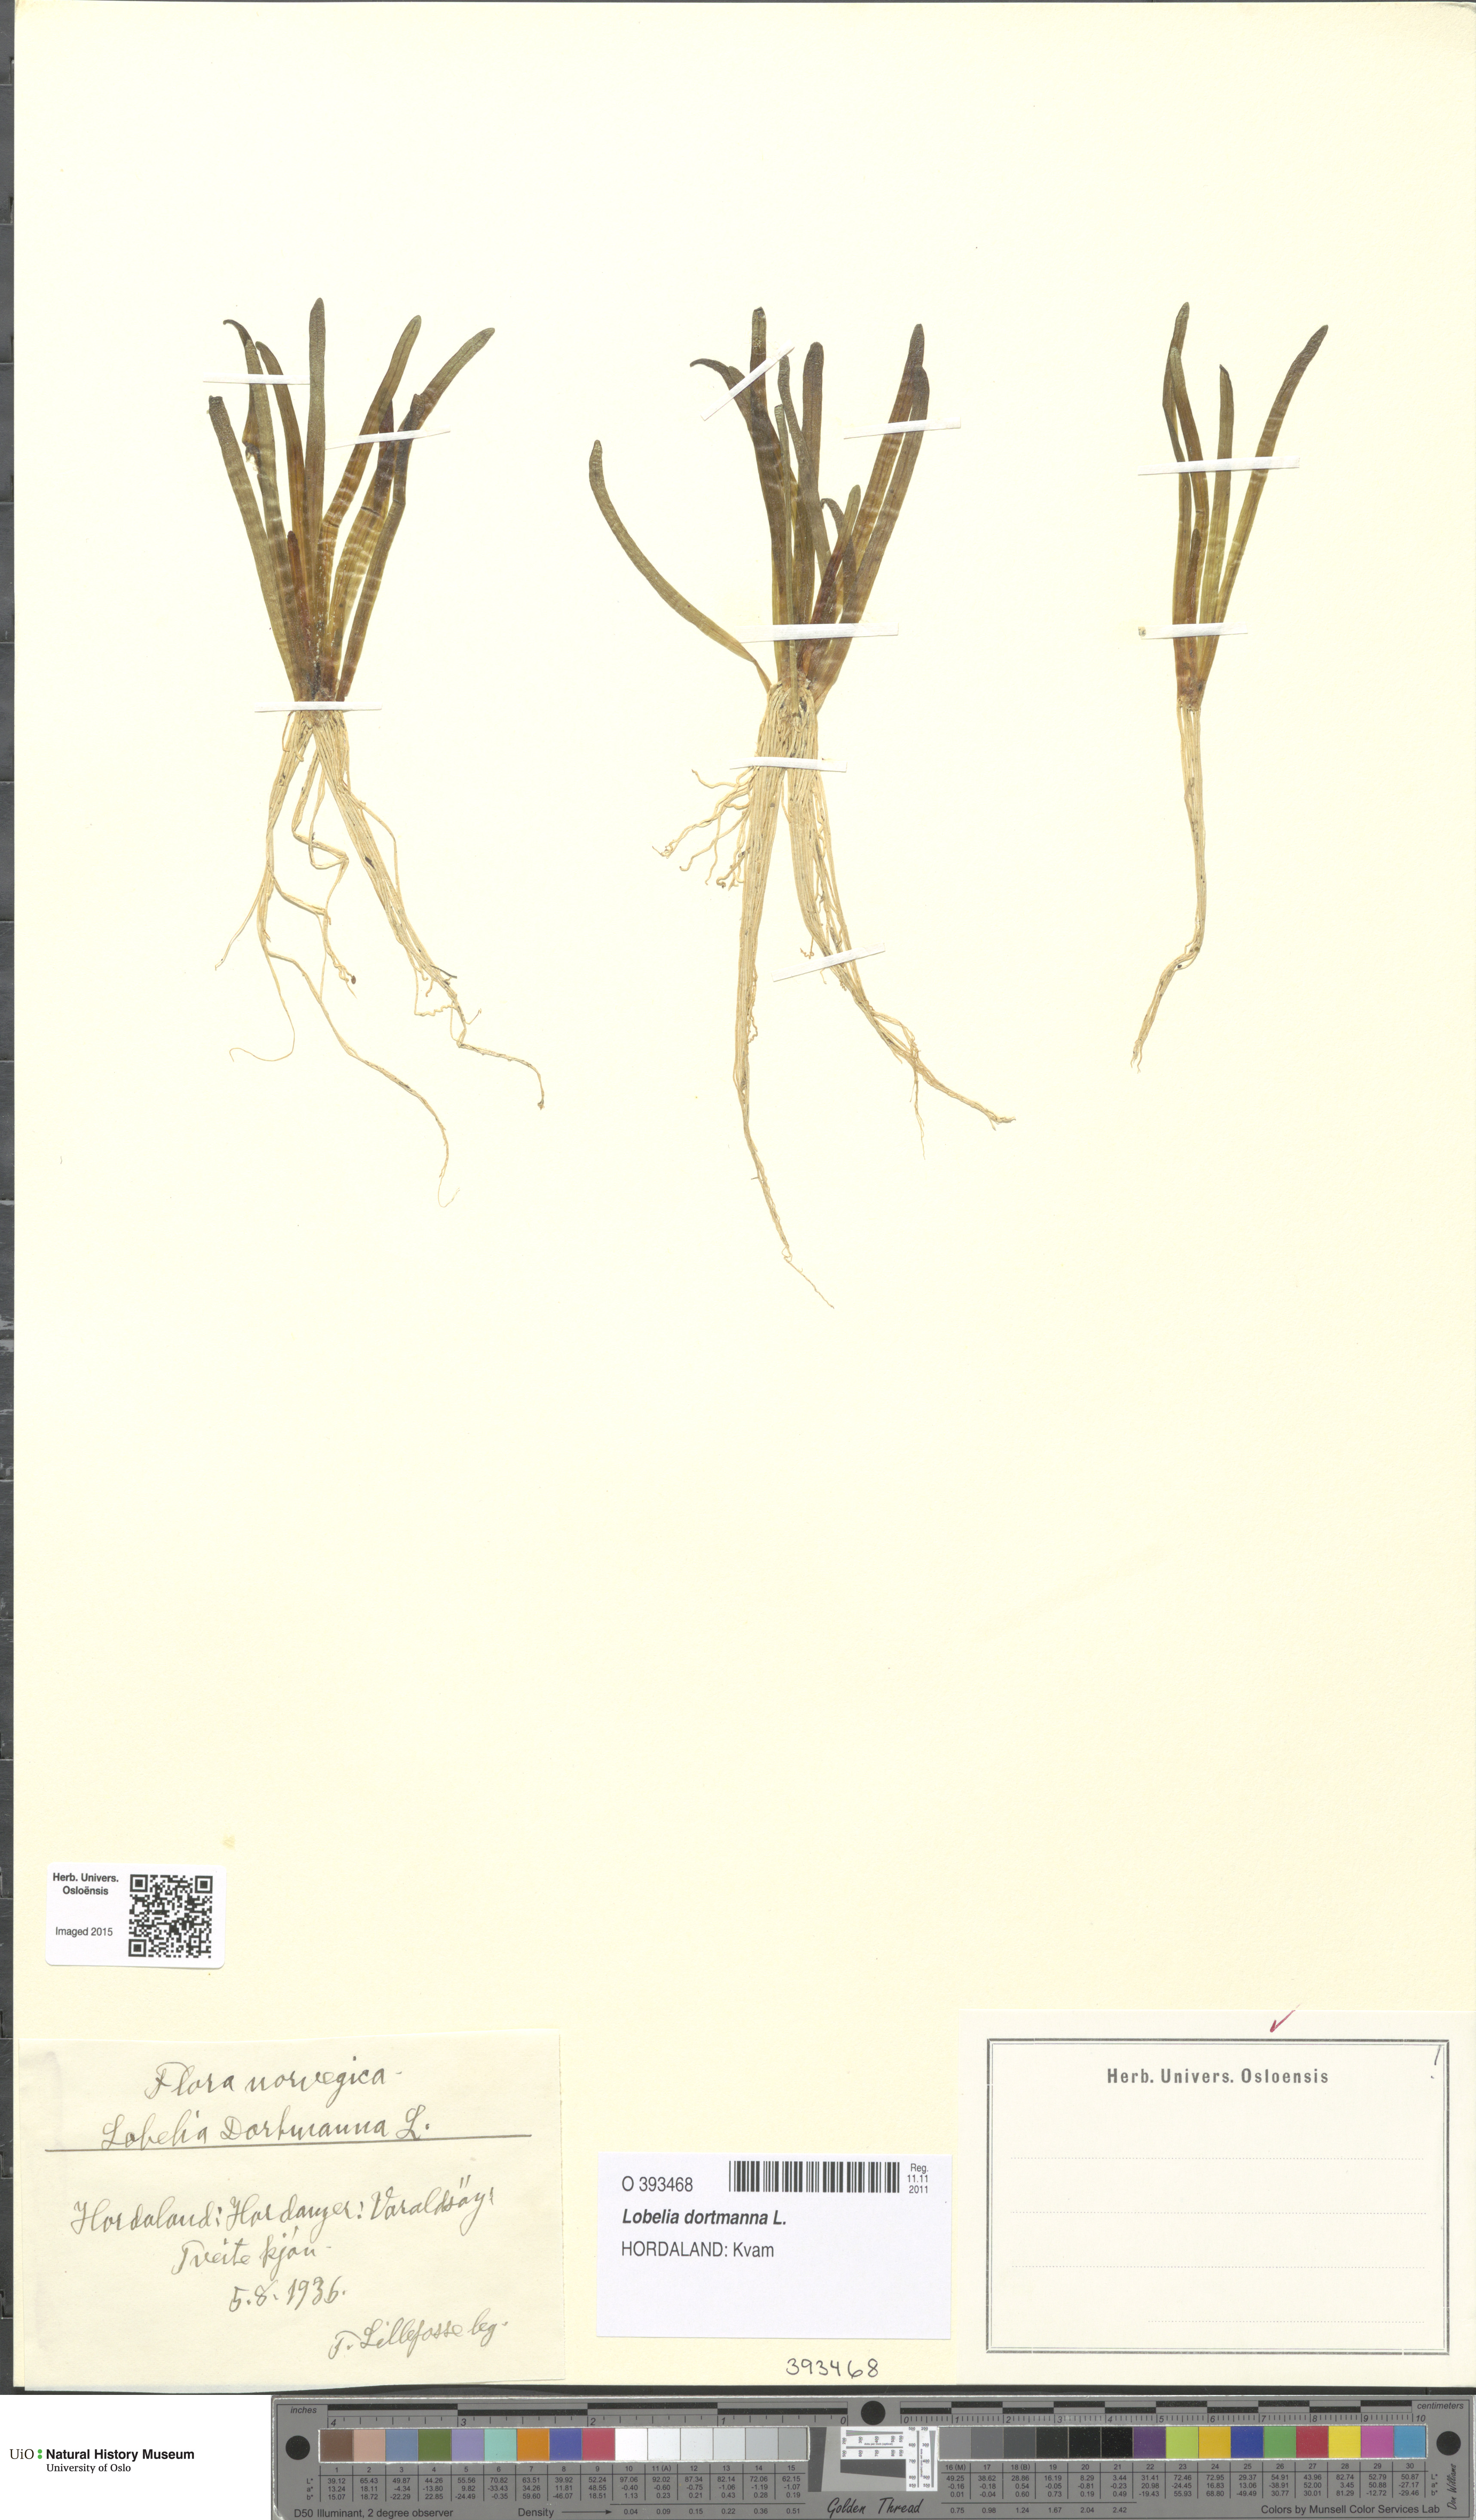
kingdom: Plantae
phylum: Tracheophyta
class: Magnoliopsida
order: Asterales
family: Campanulaceae
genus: Lobelia
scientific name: Lobelia dortmanna
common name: Water lobelia
